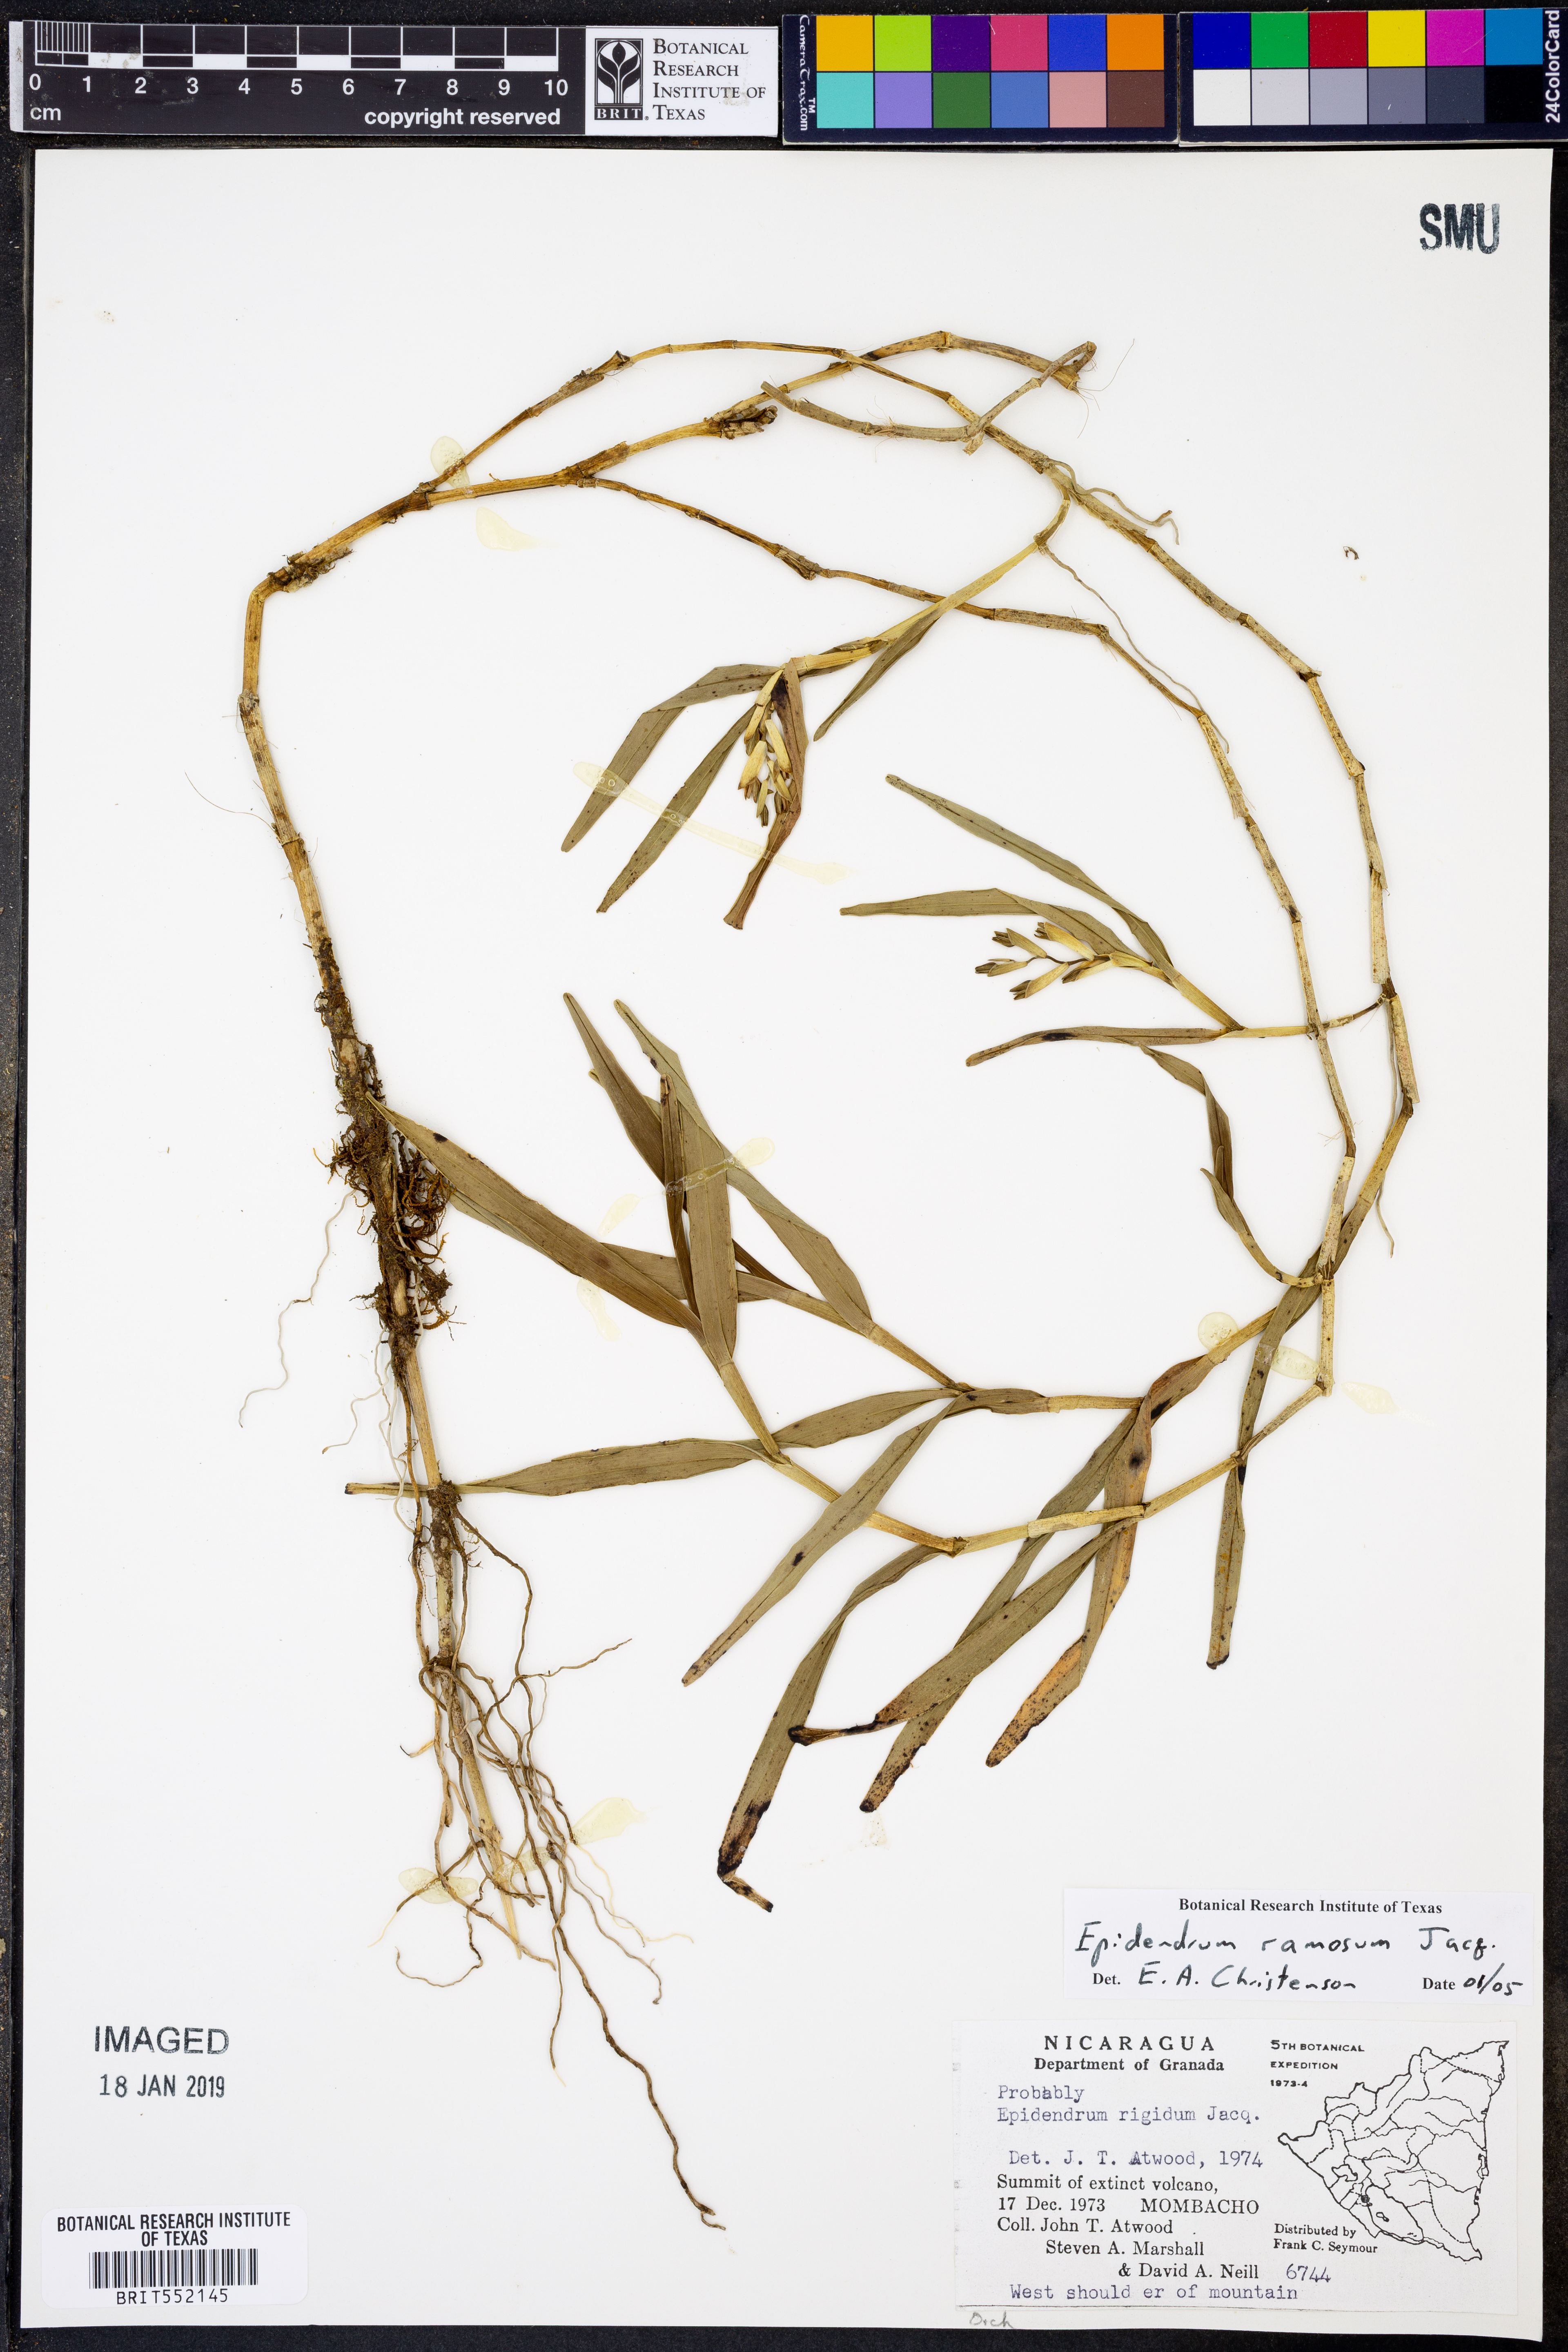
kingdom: Plantae
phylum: Tracheophyta
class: Liliopsida
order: Asparagales
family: Orchidaceae
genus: Epidendrum
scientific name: Epidendrum ramosum
